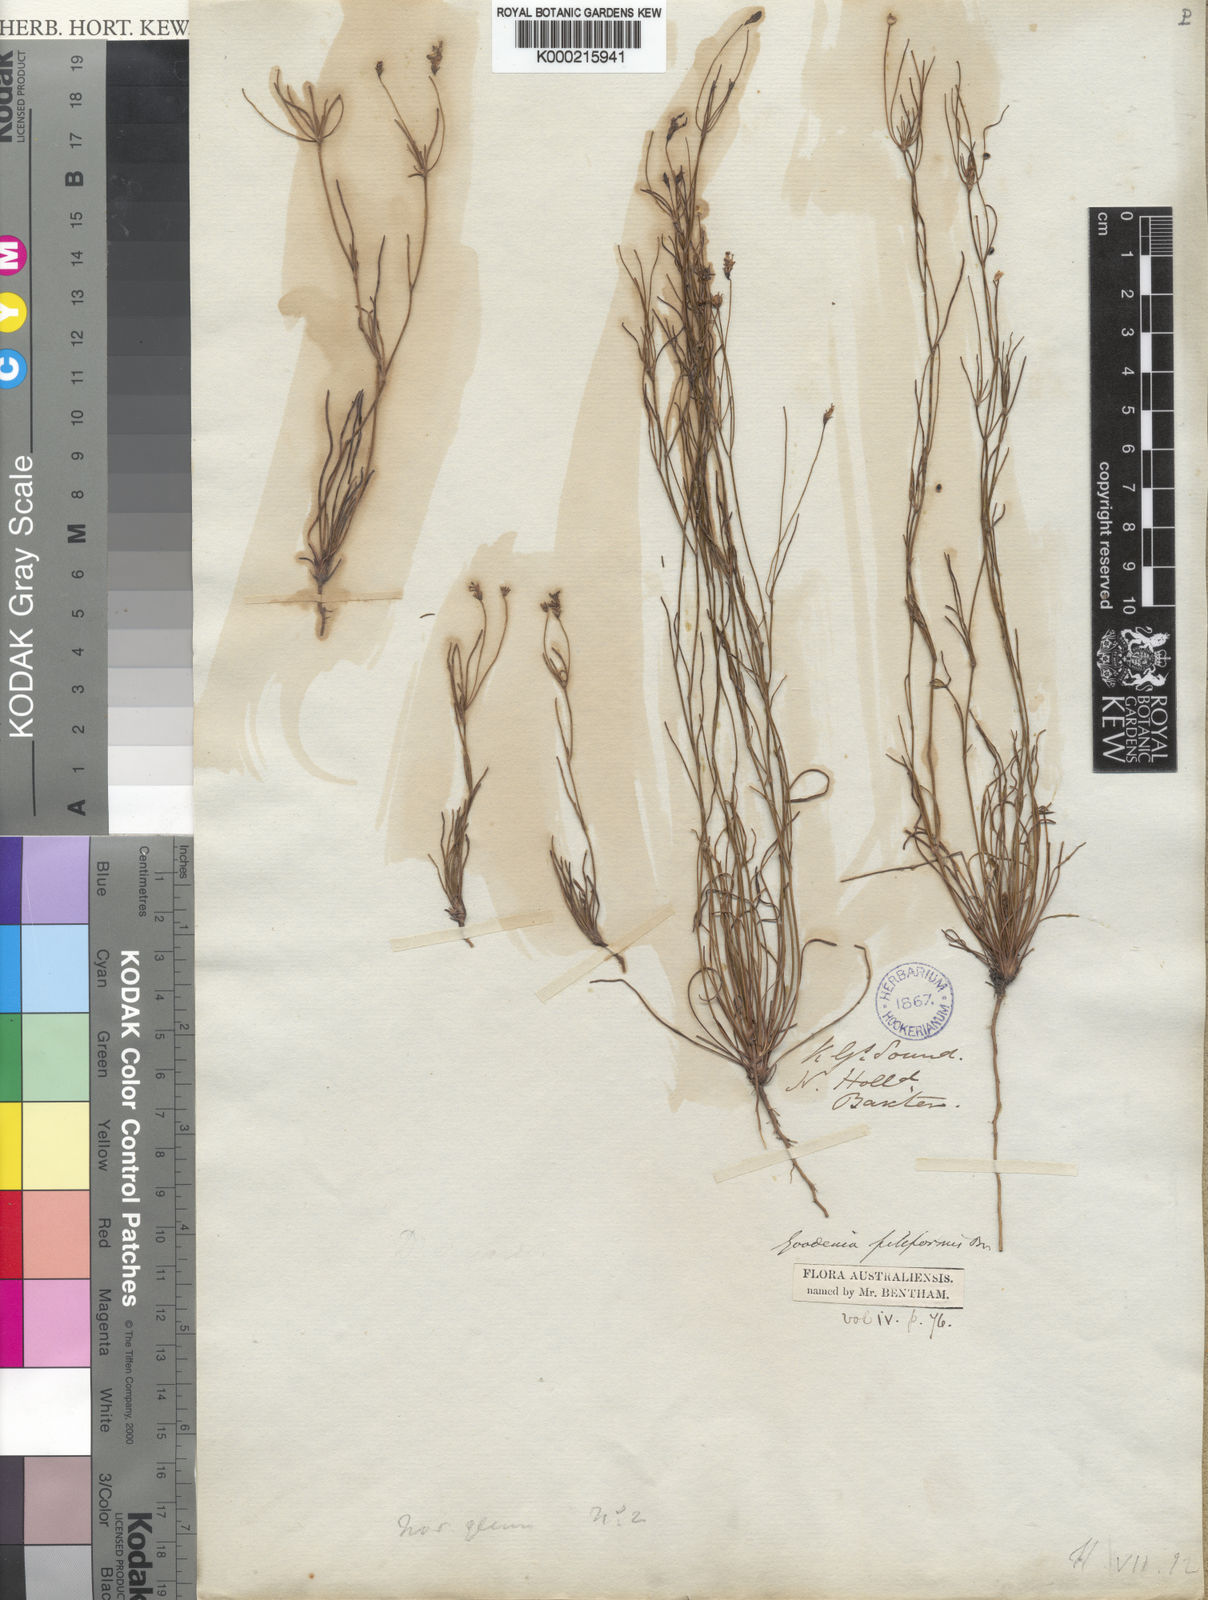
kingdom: Plantae
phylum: Tracheophyta
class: Magnoliopsida
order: Asterales
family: Goodeniaceae
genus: Goodenia
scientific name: Goodenia filiformis
